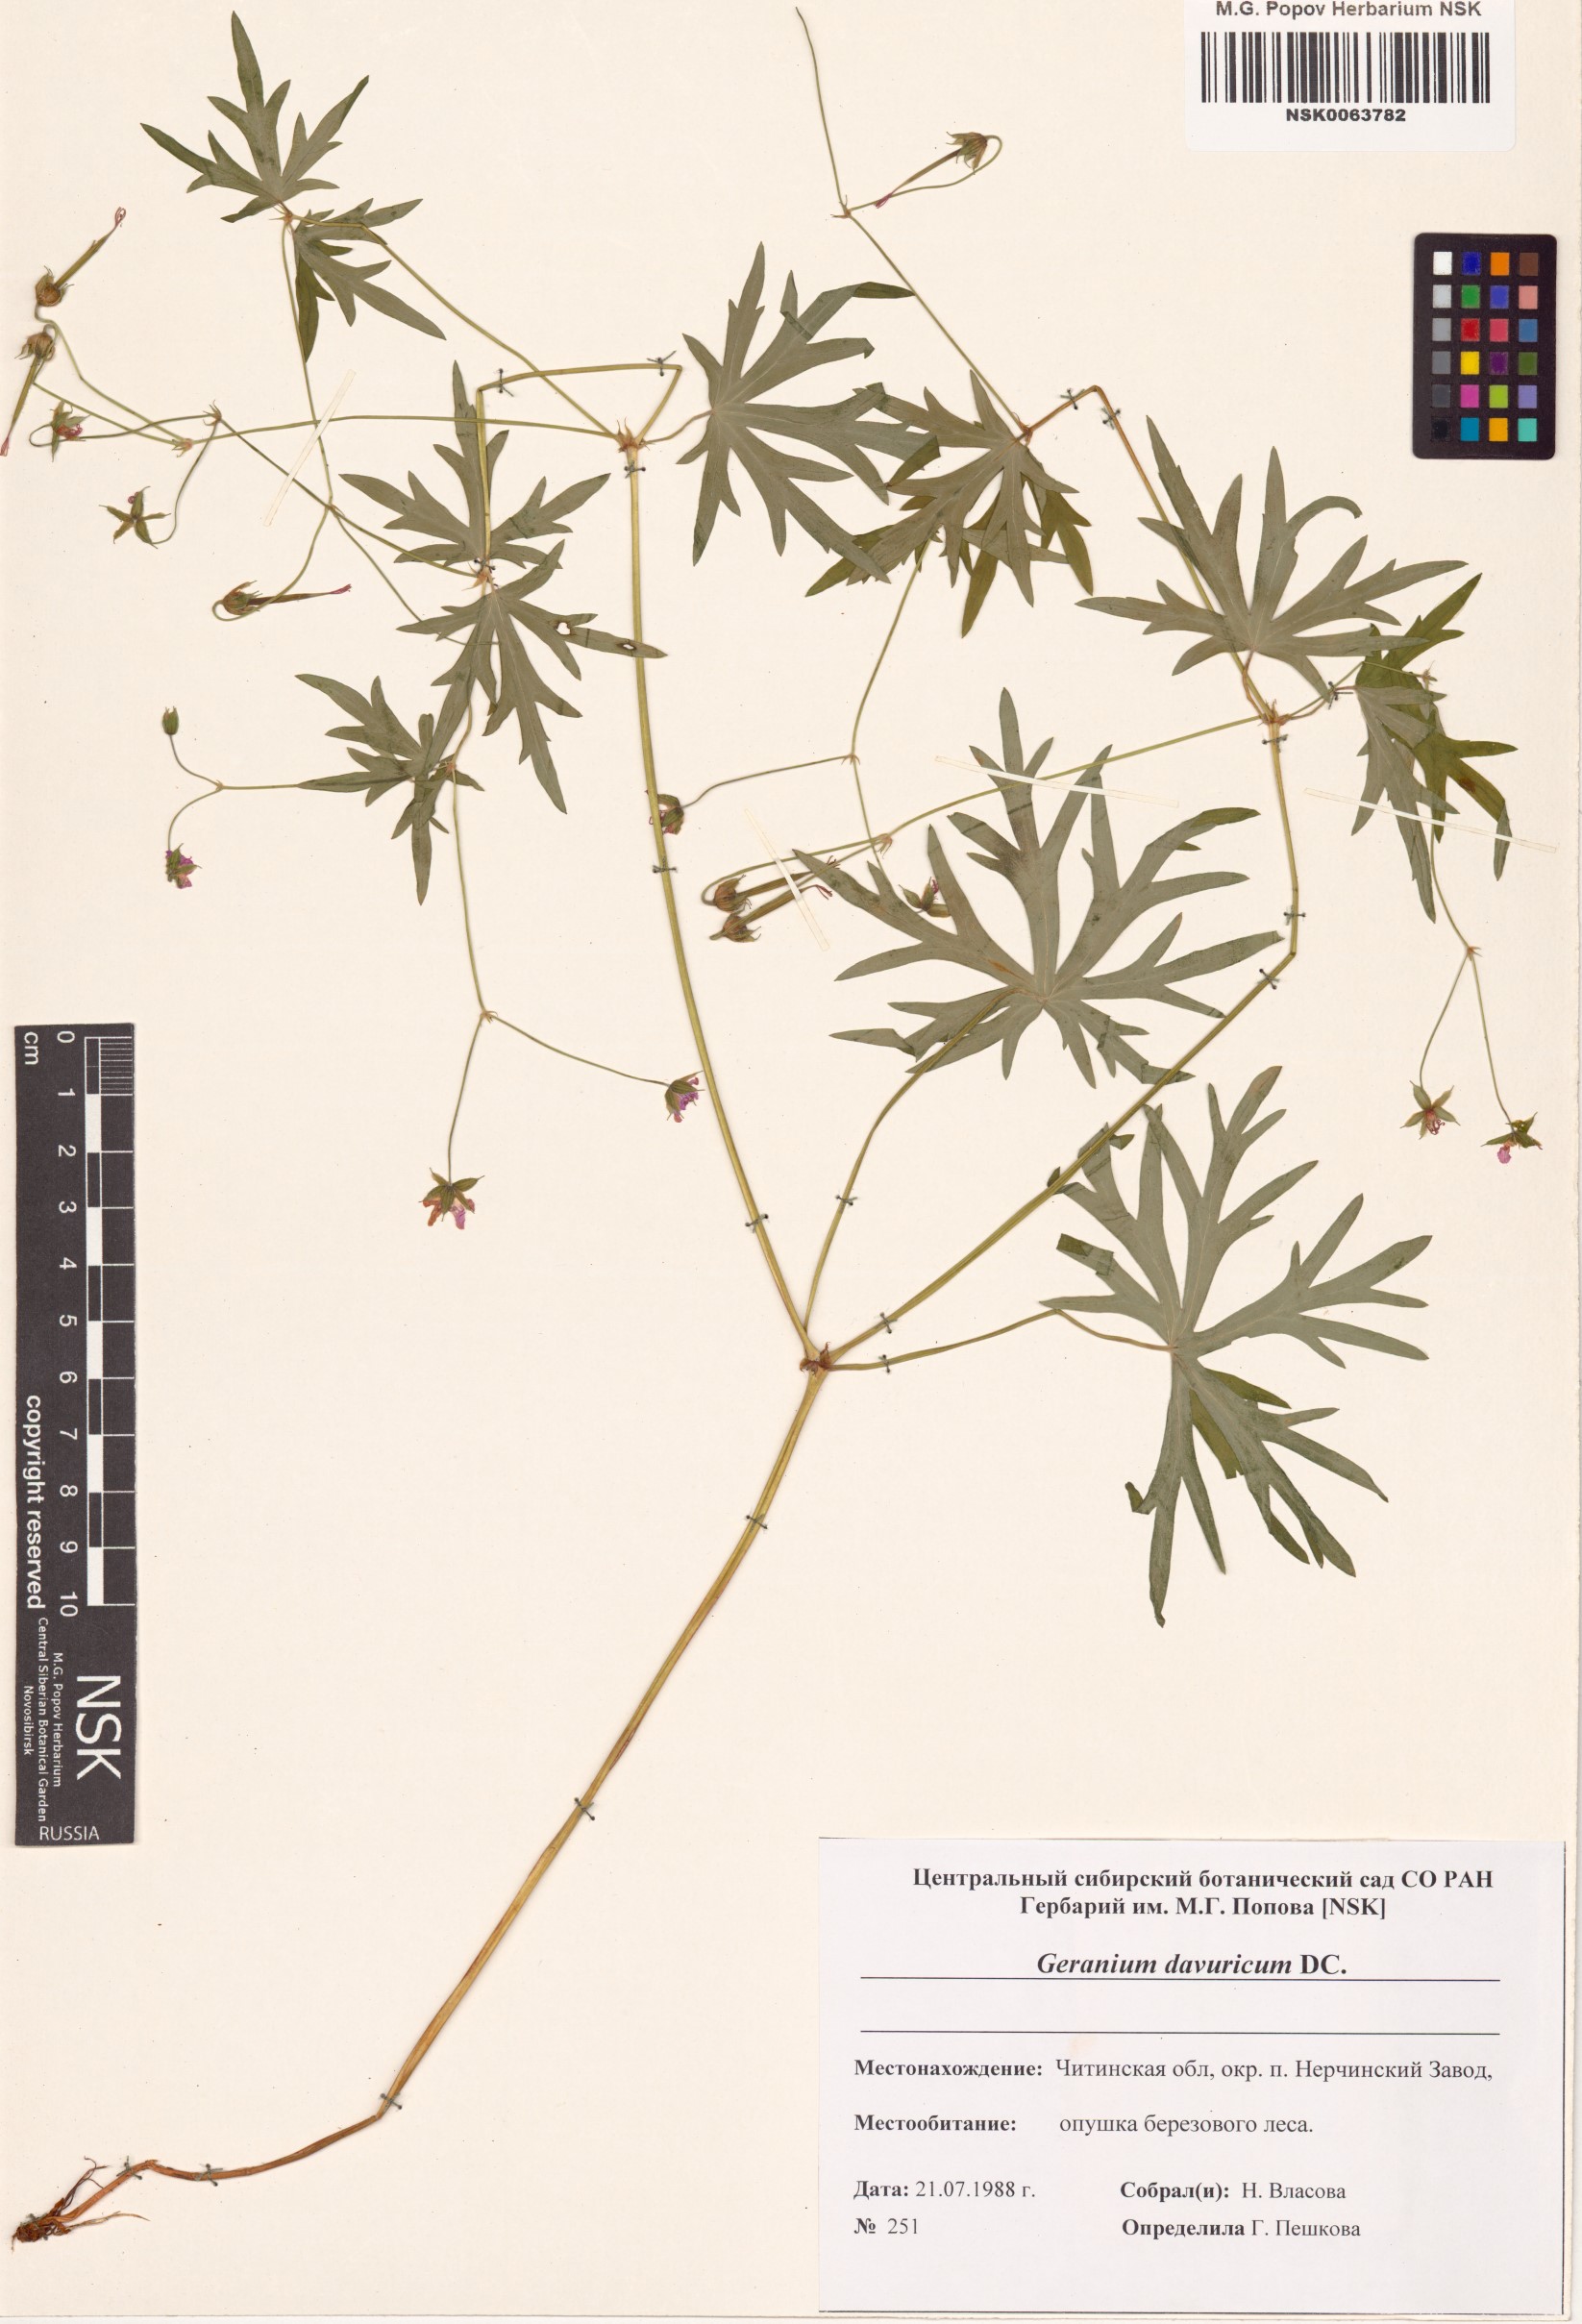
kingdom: Plantae
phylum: Tracheophyta
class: Magnoliopsida
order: Geraniales
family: Geraniaceae
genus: Geranium
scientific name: Geranium dahuricum
